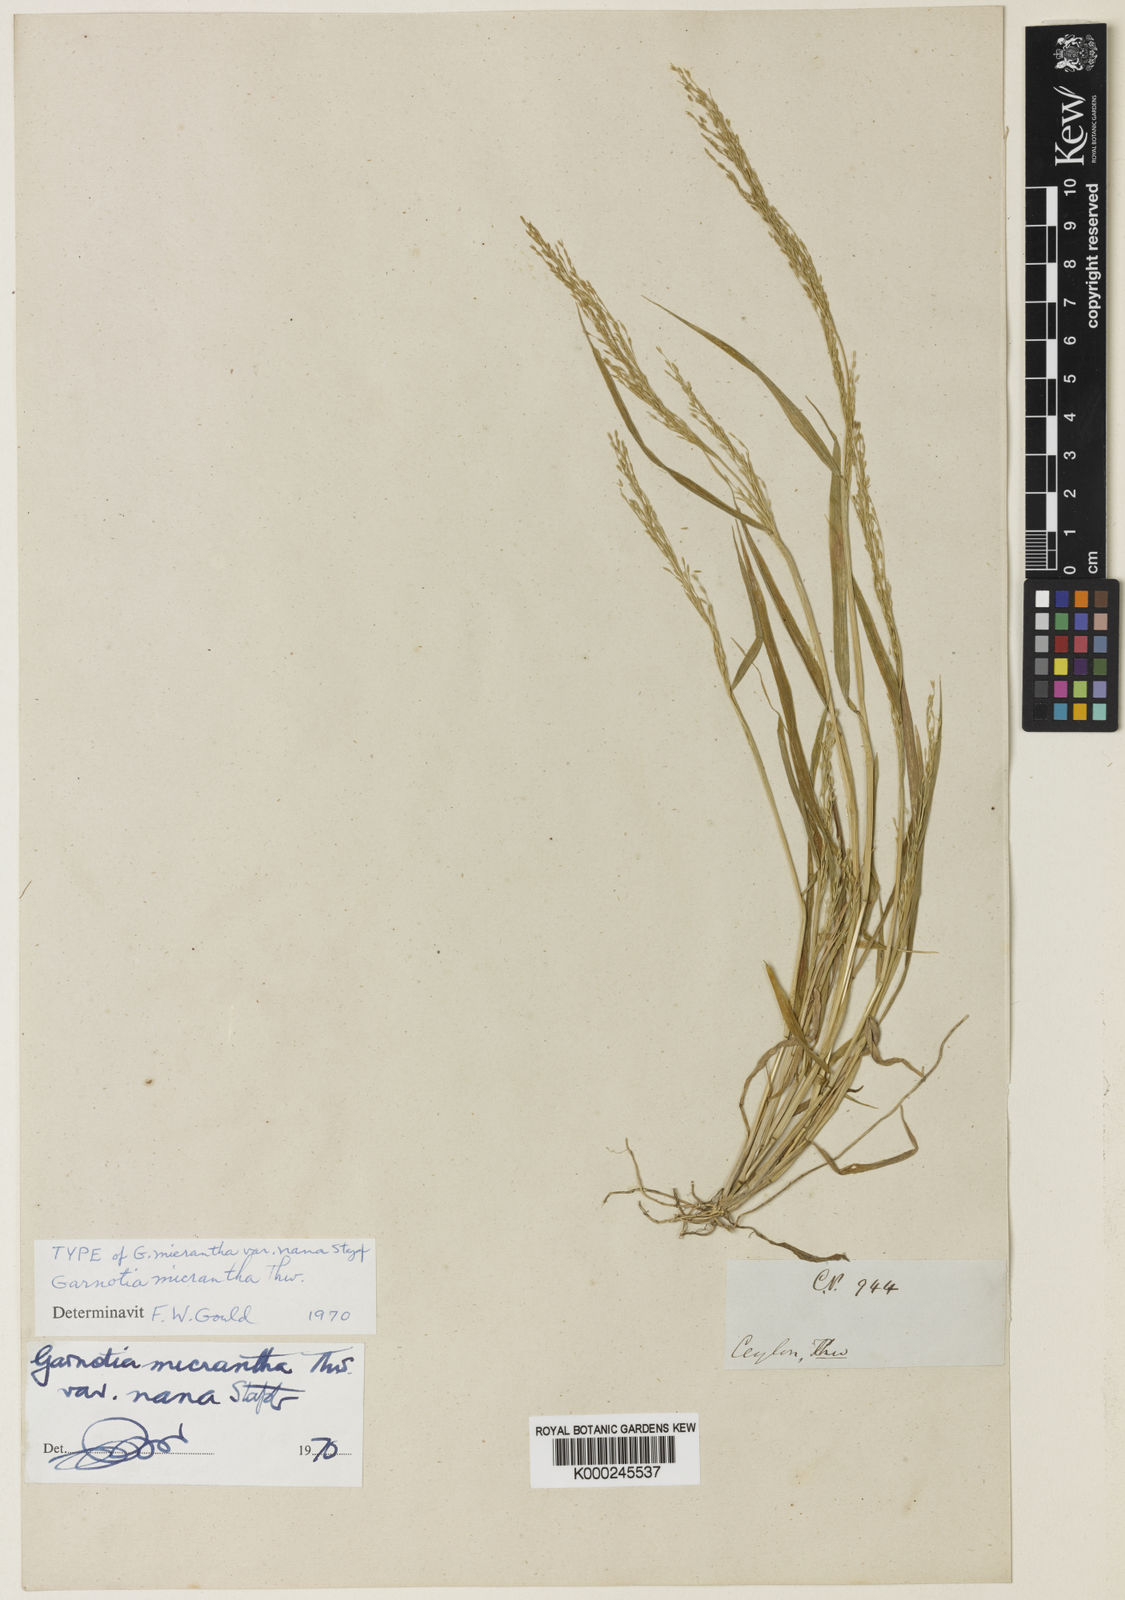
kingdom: Plantae
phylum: Tracheophyta
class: Liliopsida
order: Poales
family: Poaceae
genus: Garnotia
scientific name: Garnotia micrantha
